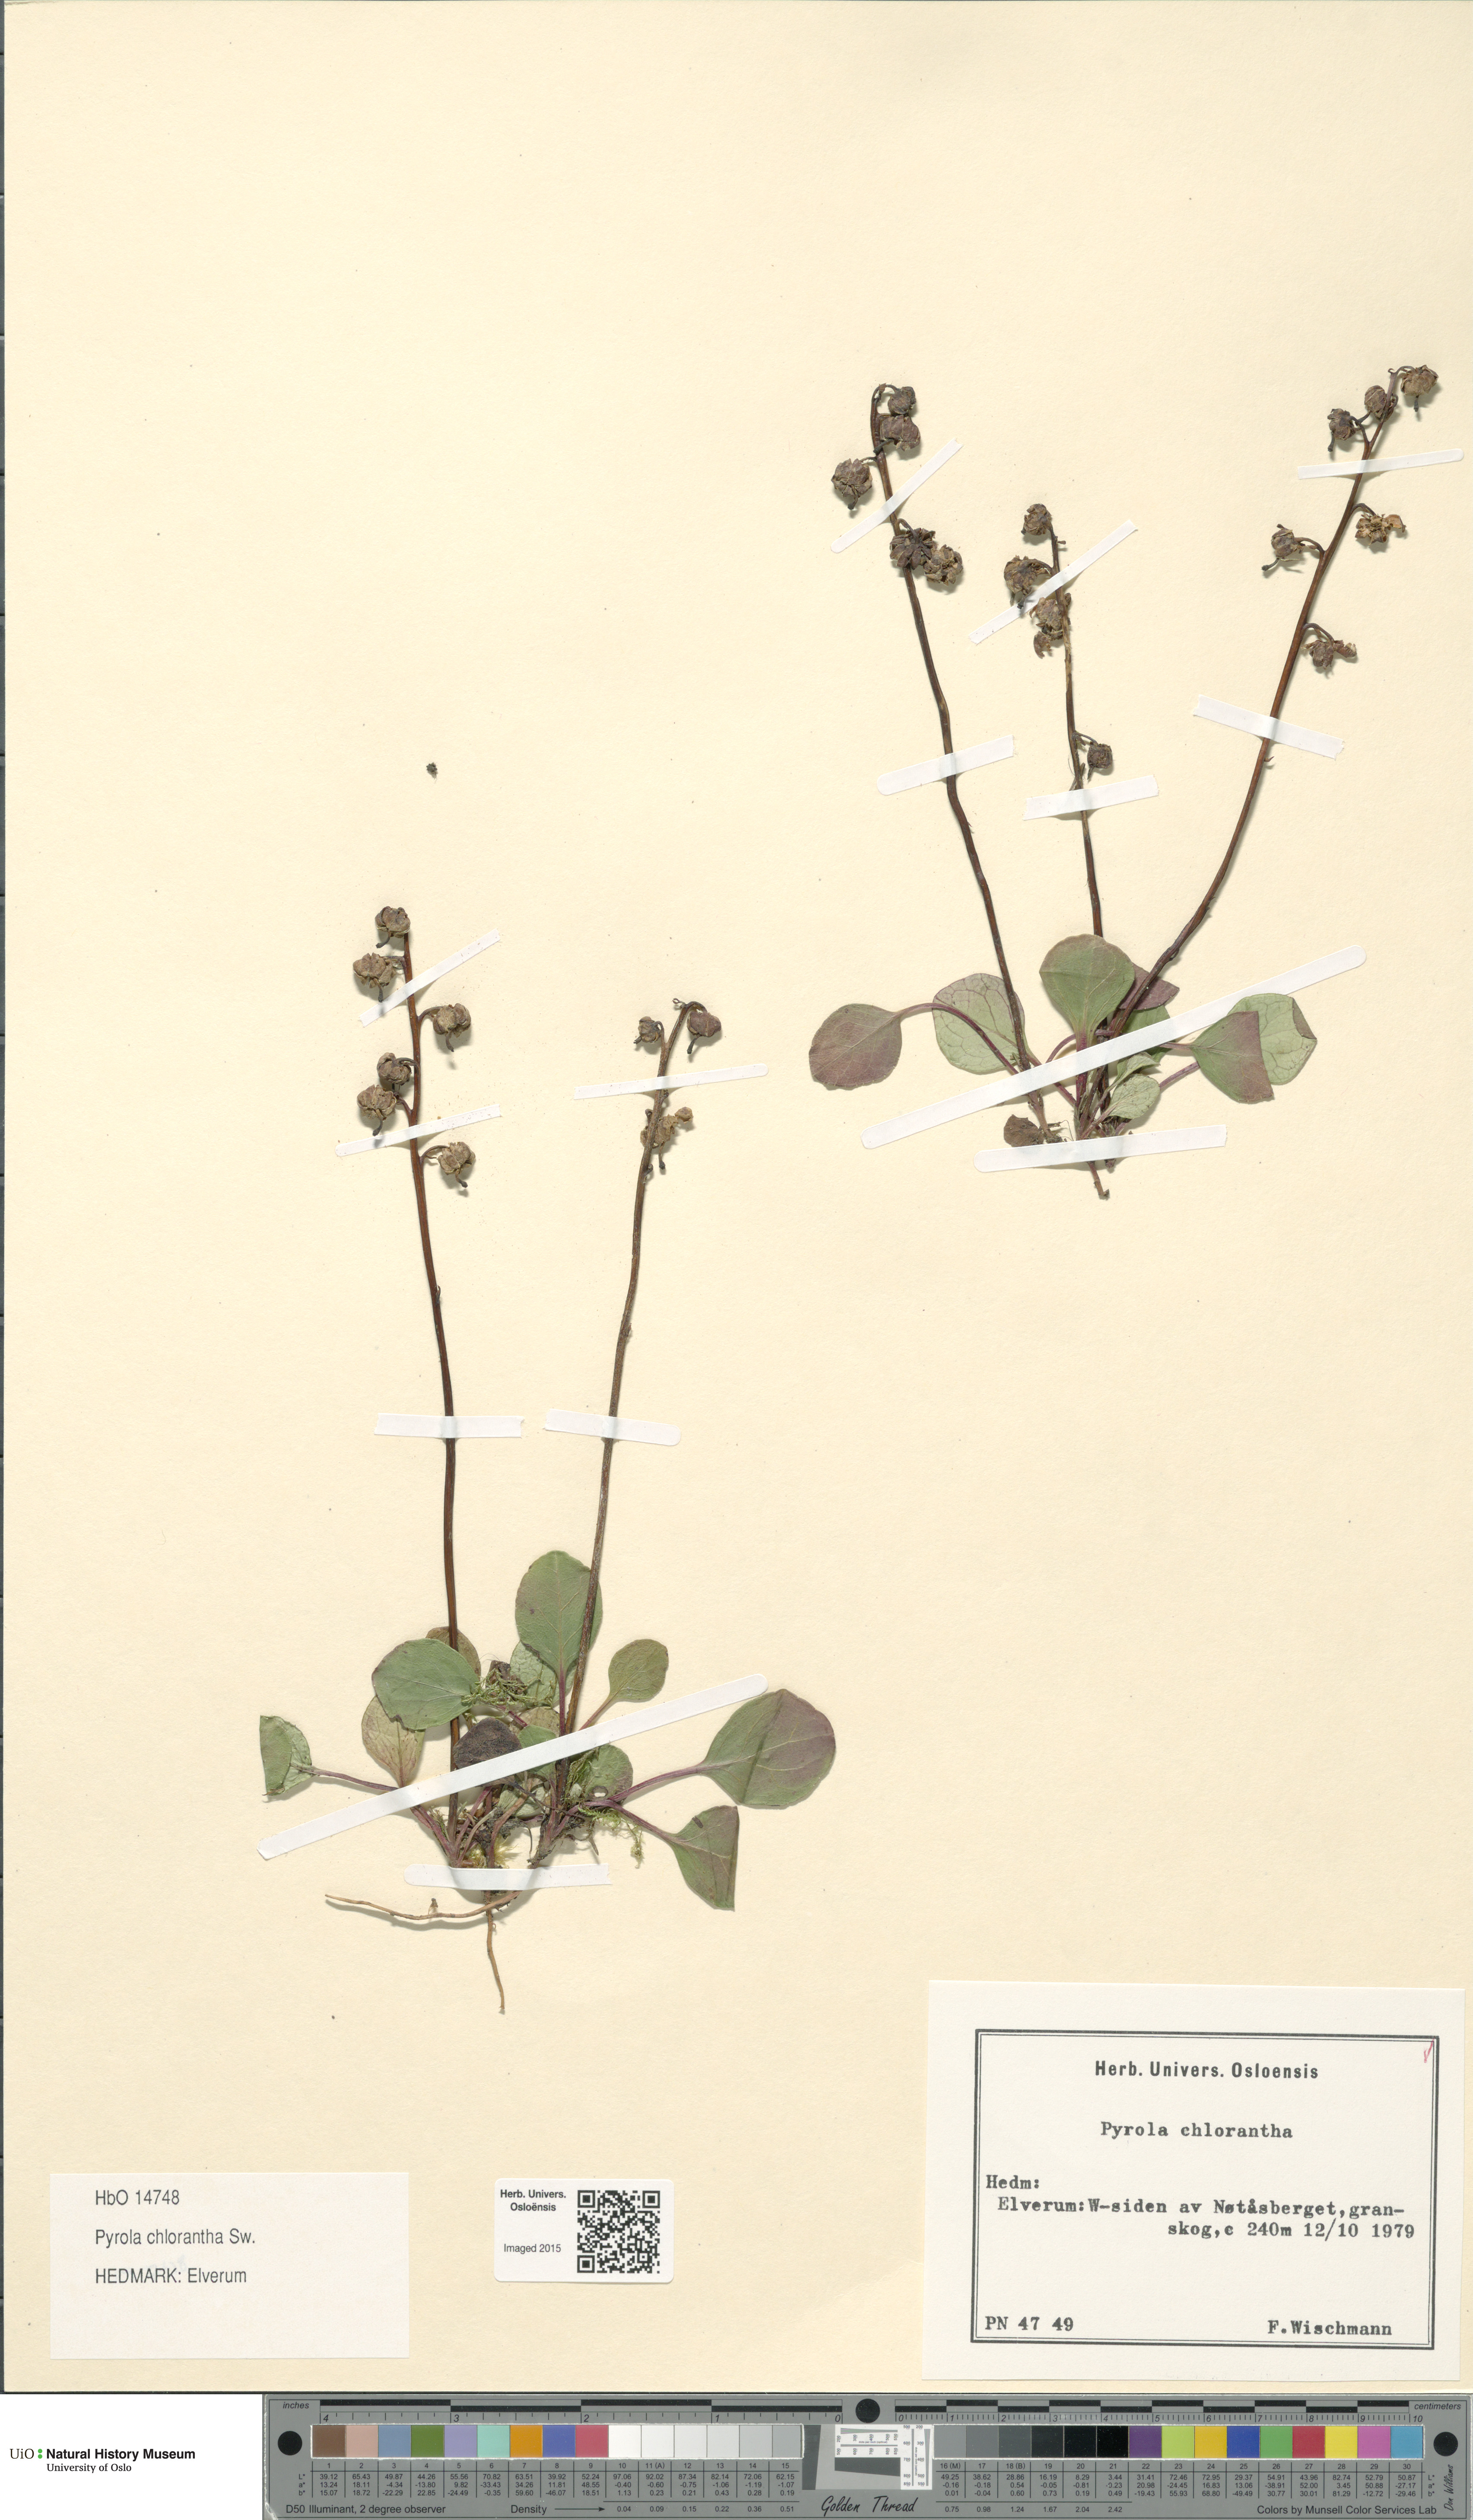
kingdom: Plantae
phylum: Tracheophyta
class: Magnoliopsida
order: Ericales
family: Ericaceae
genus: Pyrola
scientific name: Pyrola chlorantha
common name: Green wintergreen
